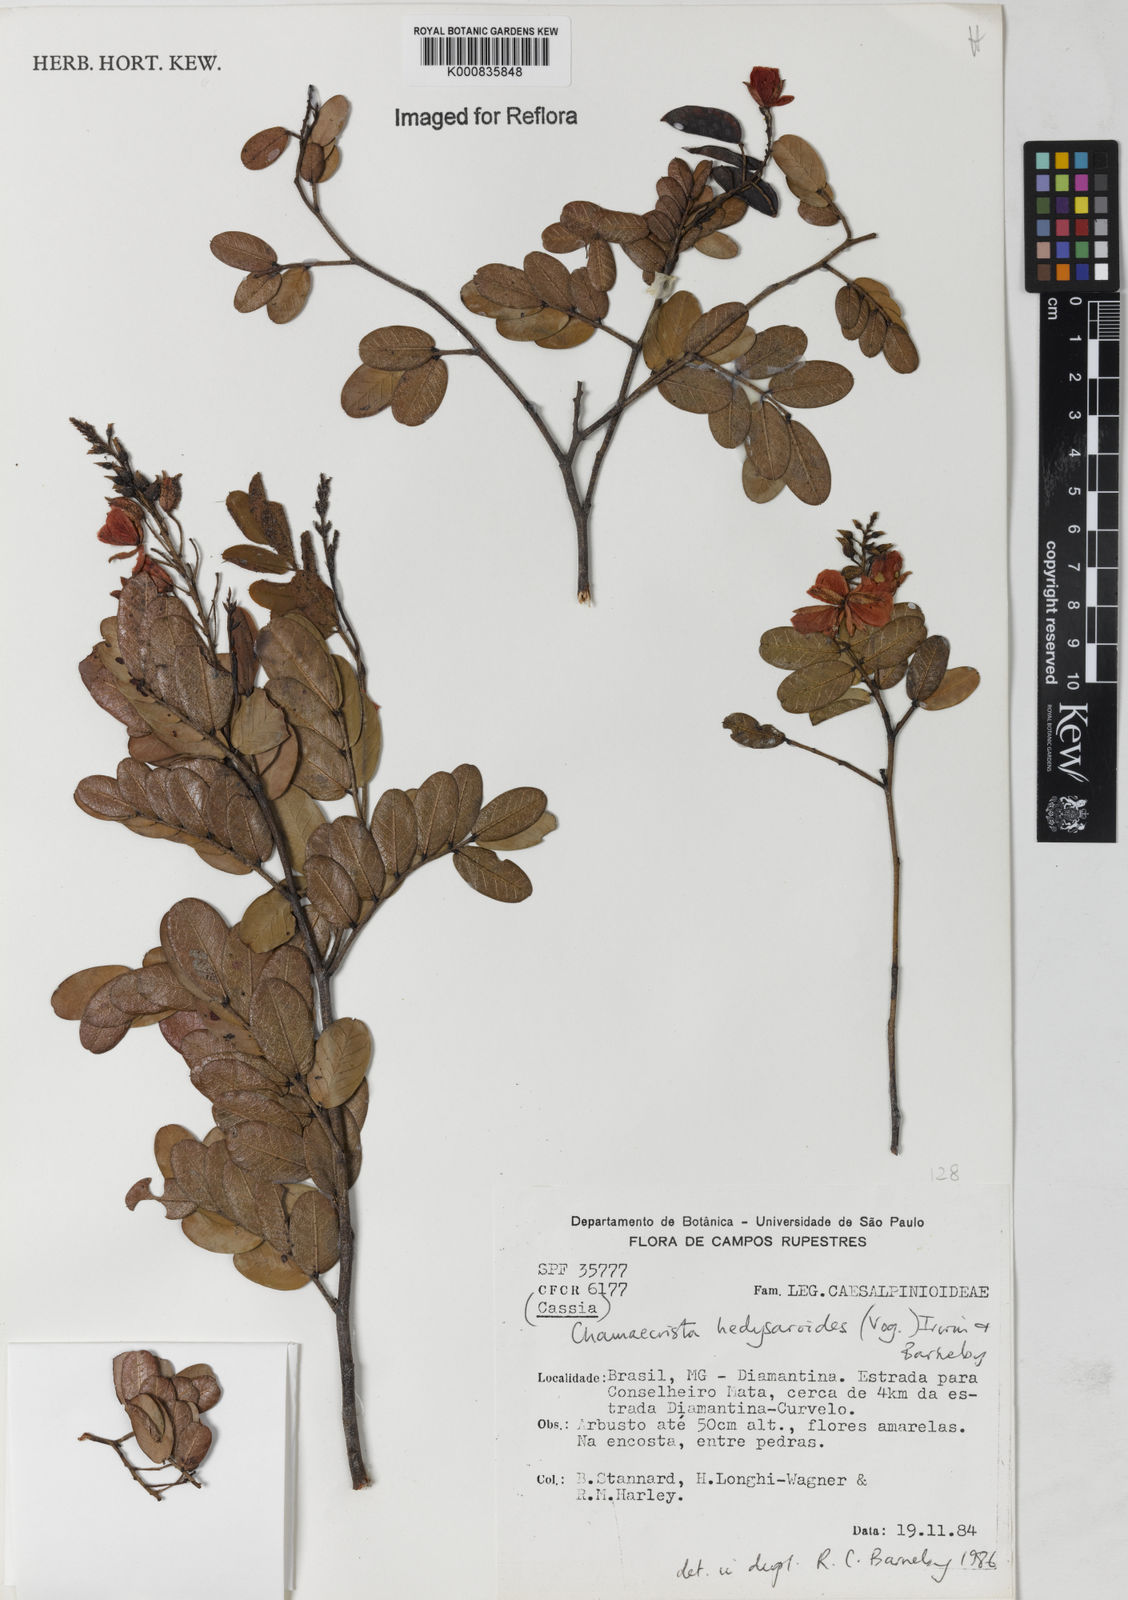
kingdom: Plantae
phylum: Tracheophyta
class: Magnoliopsida
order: Fabales
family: Fabaceae
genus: Chamaecrista
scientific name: Chamaecrista hedysaroides
